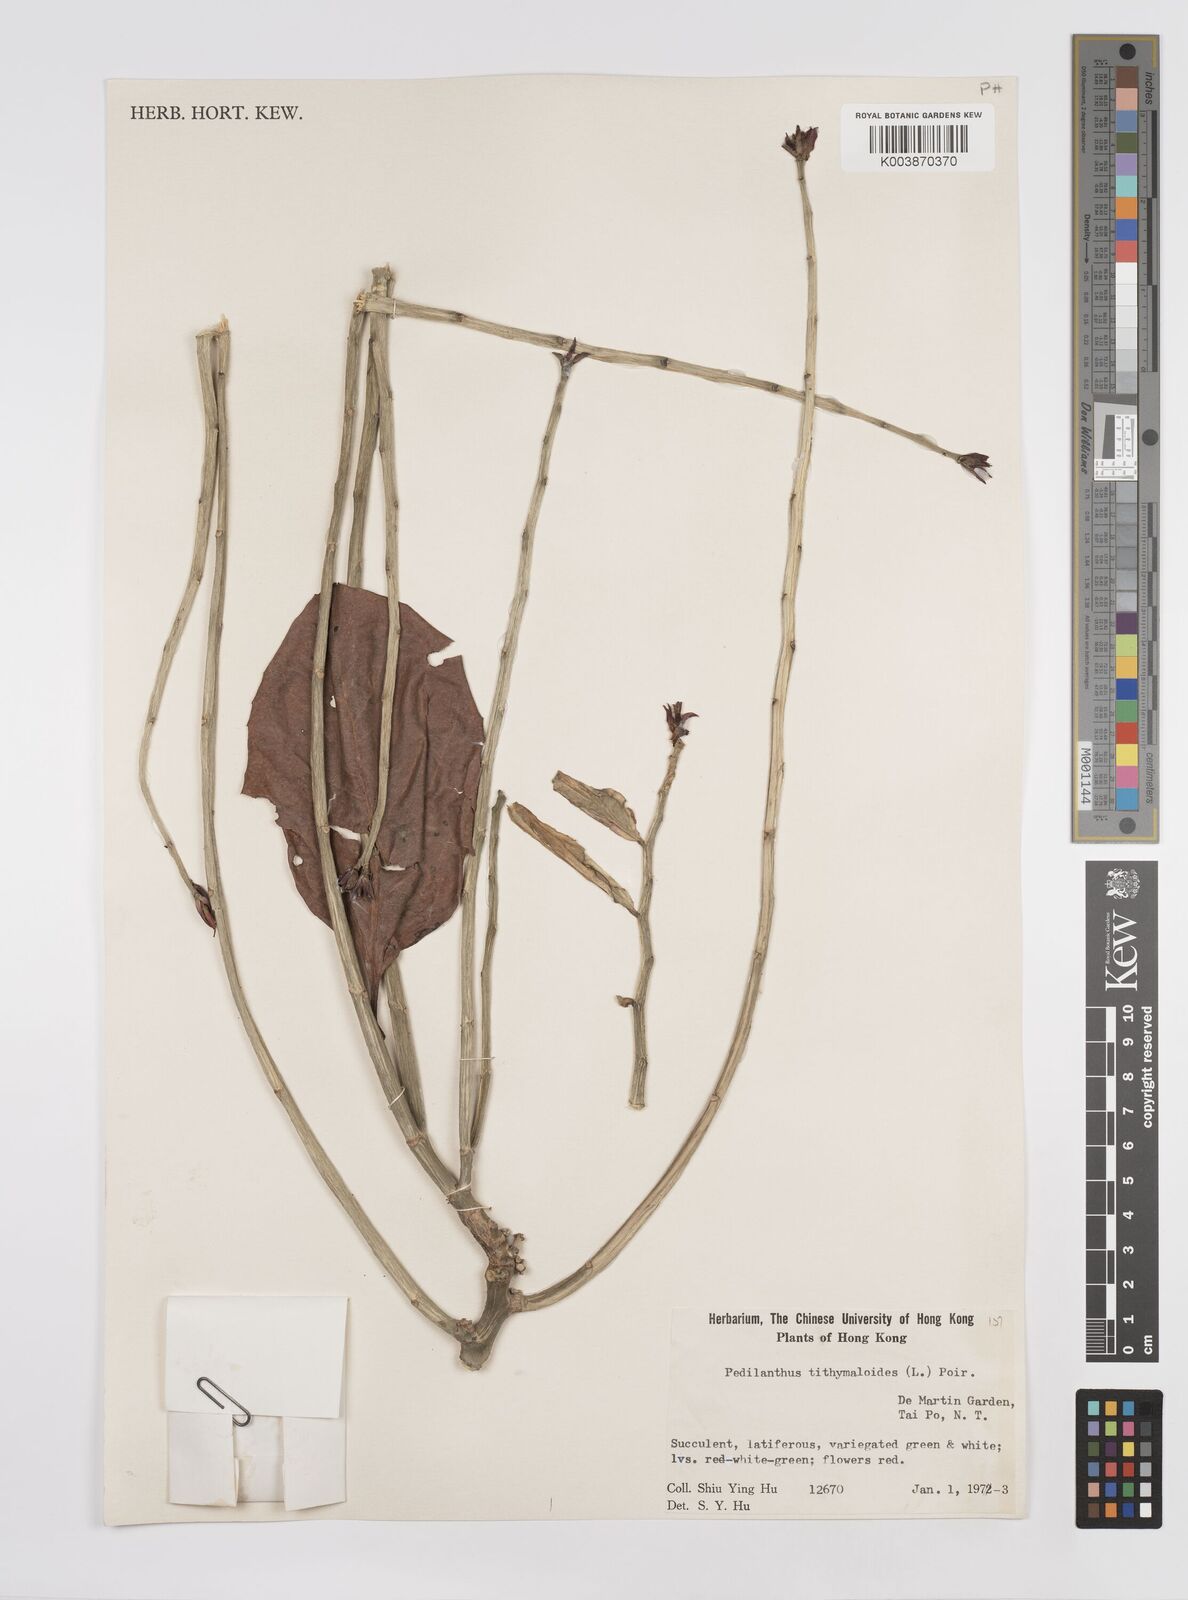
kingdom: Plantae
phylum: Tracheophyta
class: Magnoliopsida
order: Malpighiales
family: Euphorbiaceae
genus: Euphorbia
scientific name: Euphorbia tithymaloides
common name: Slipperplant
